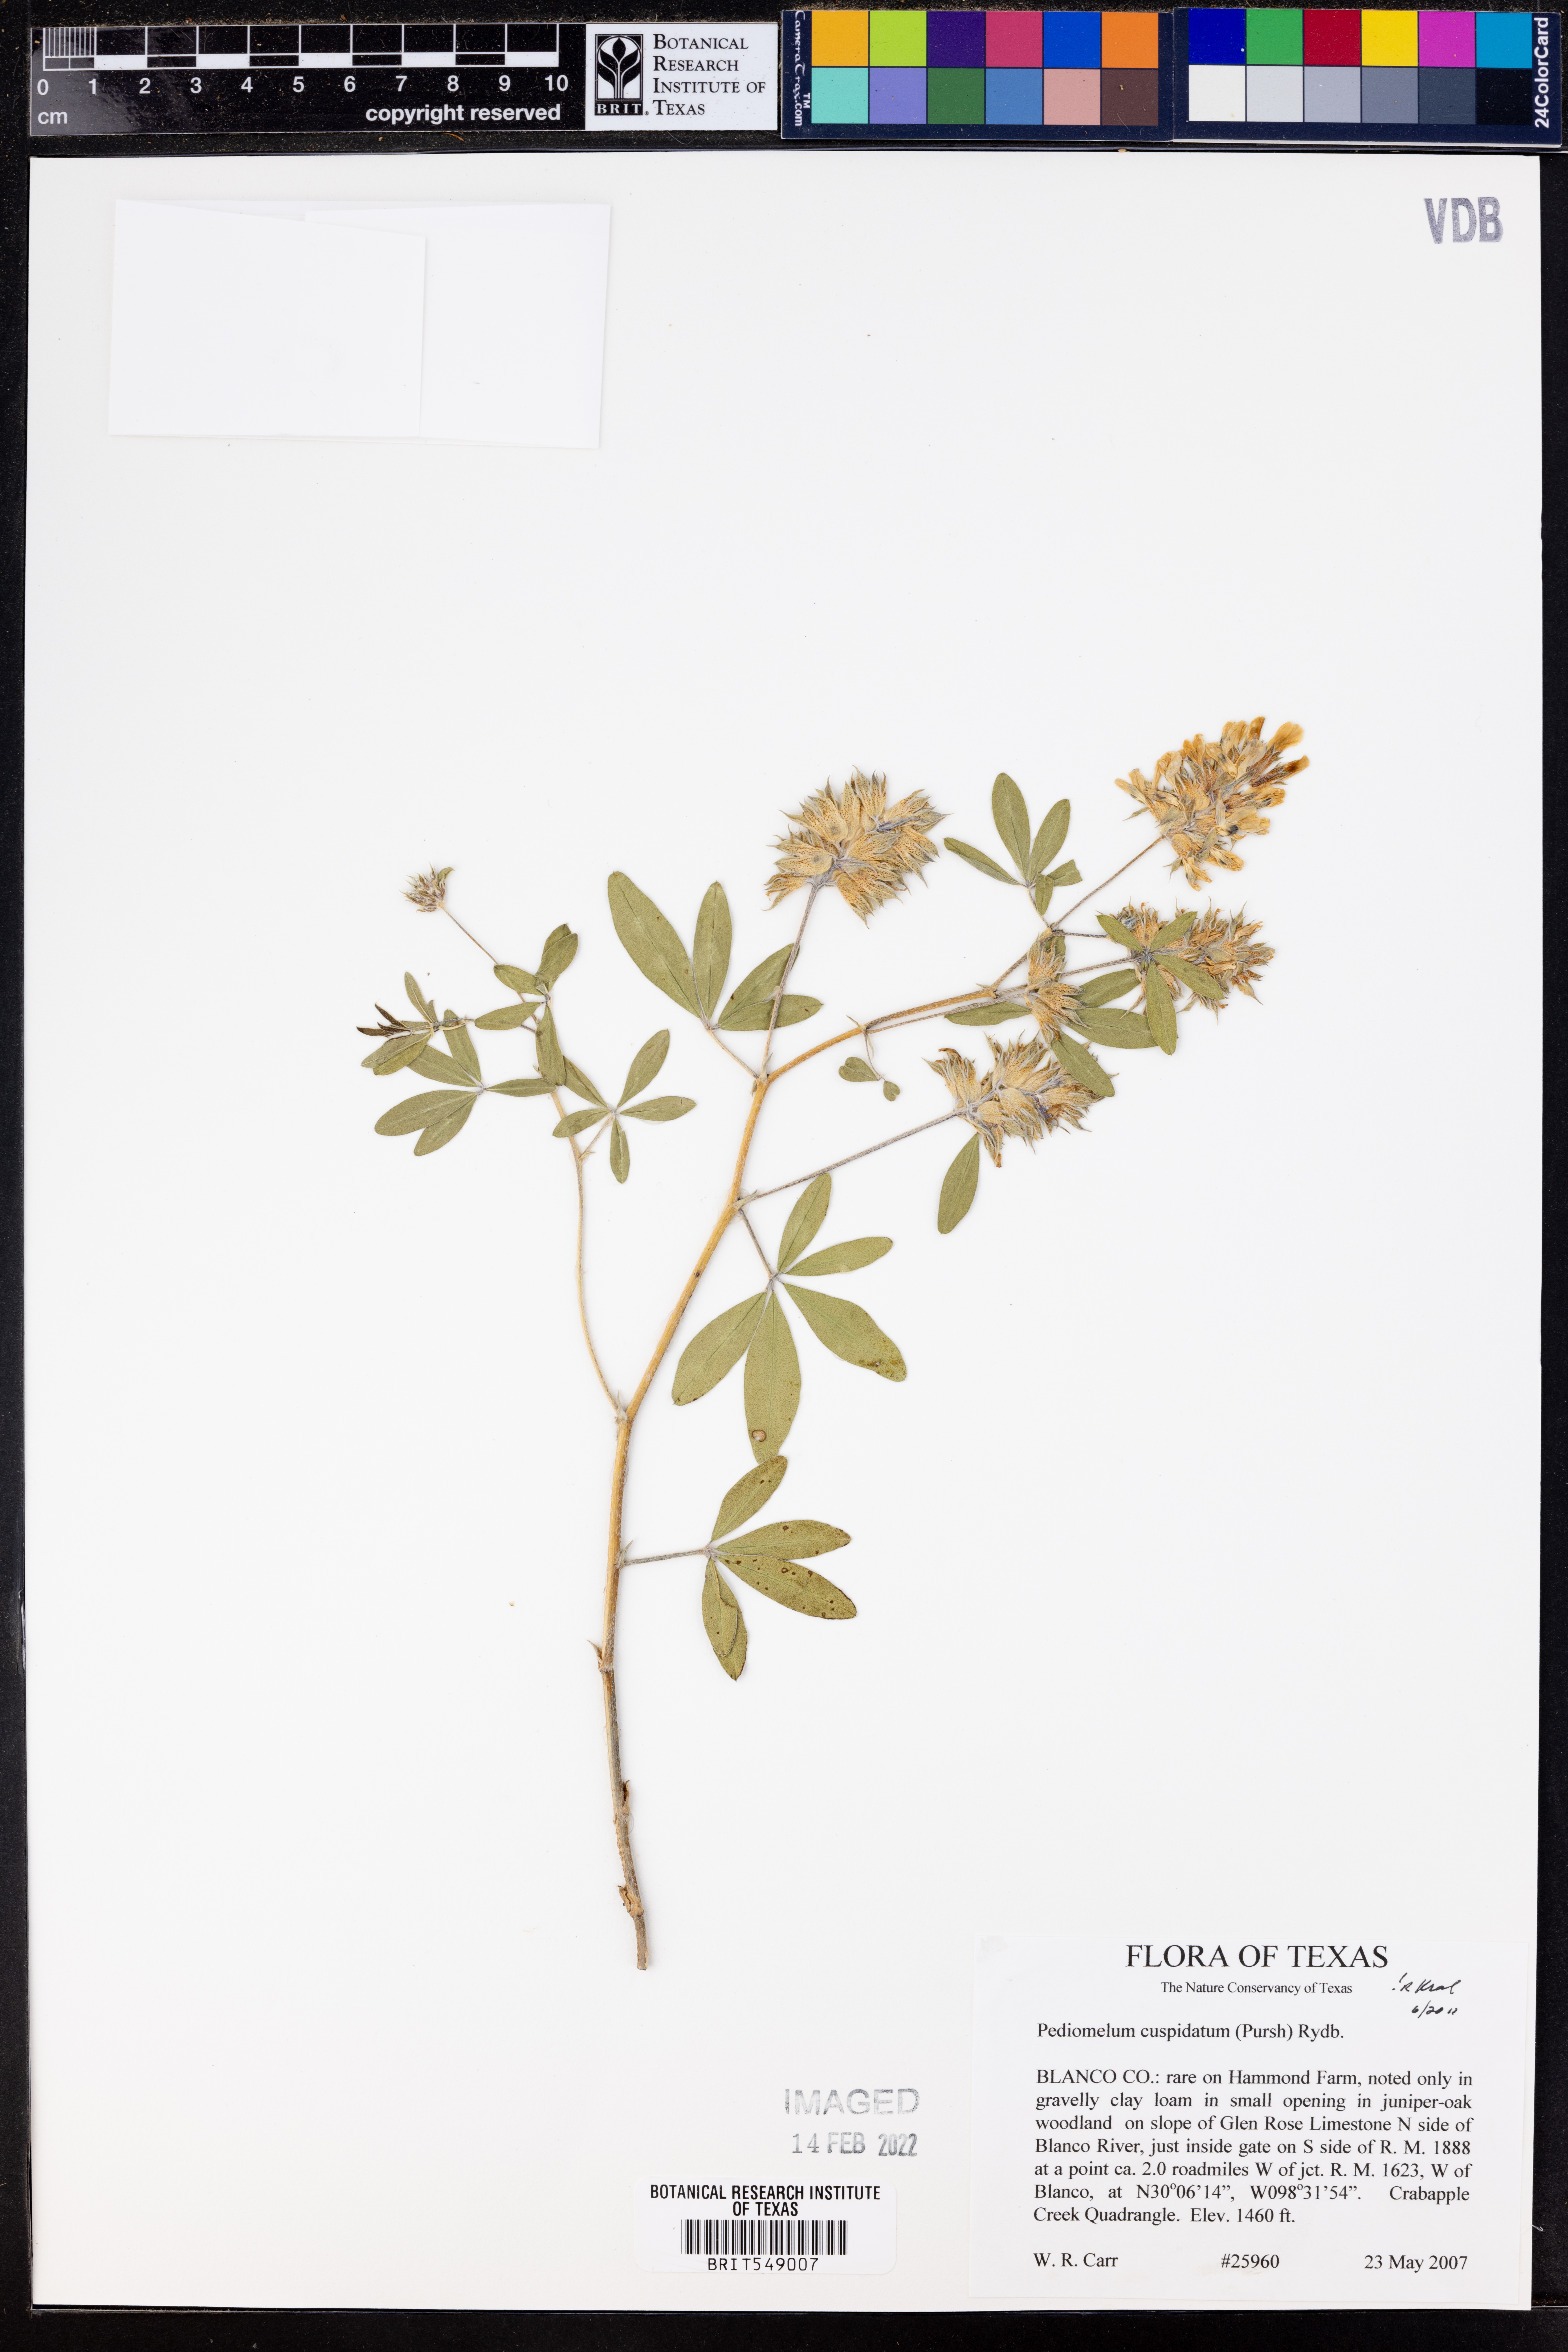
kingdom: Plantae
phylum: Tracheophyta
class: Magnoliopsida
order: Fabales
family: Fabaceae
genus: Pediomelum
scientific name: Pediomelum cuspidatum
